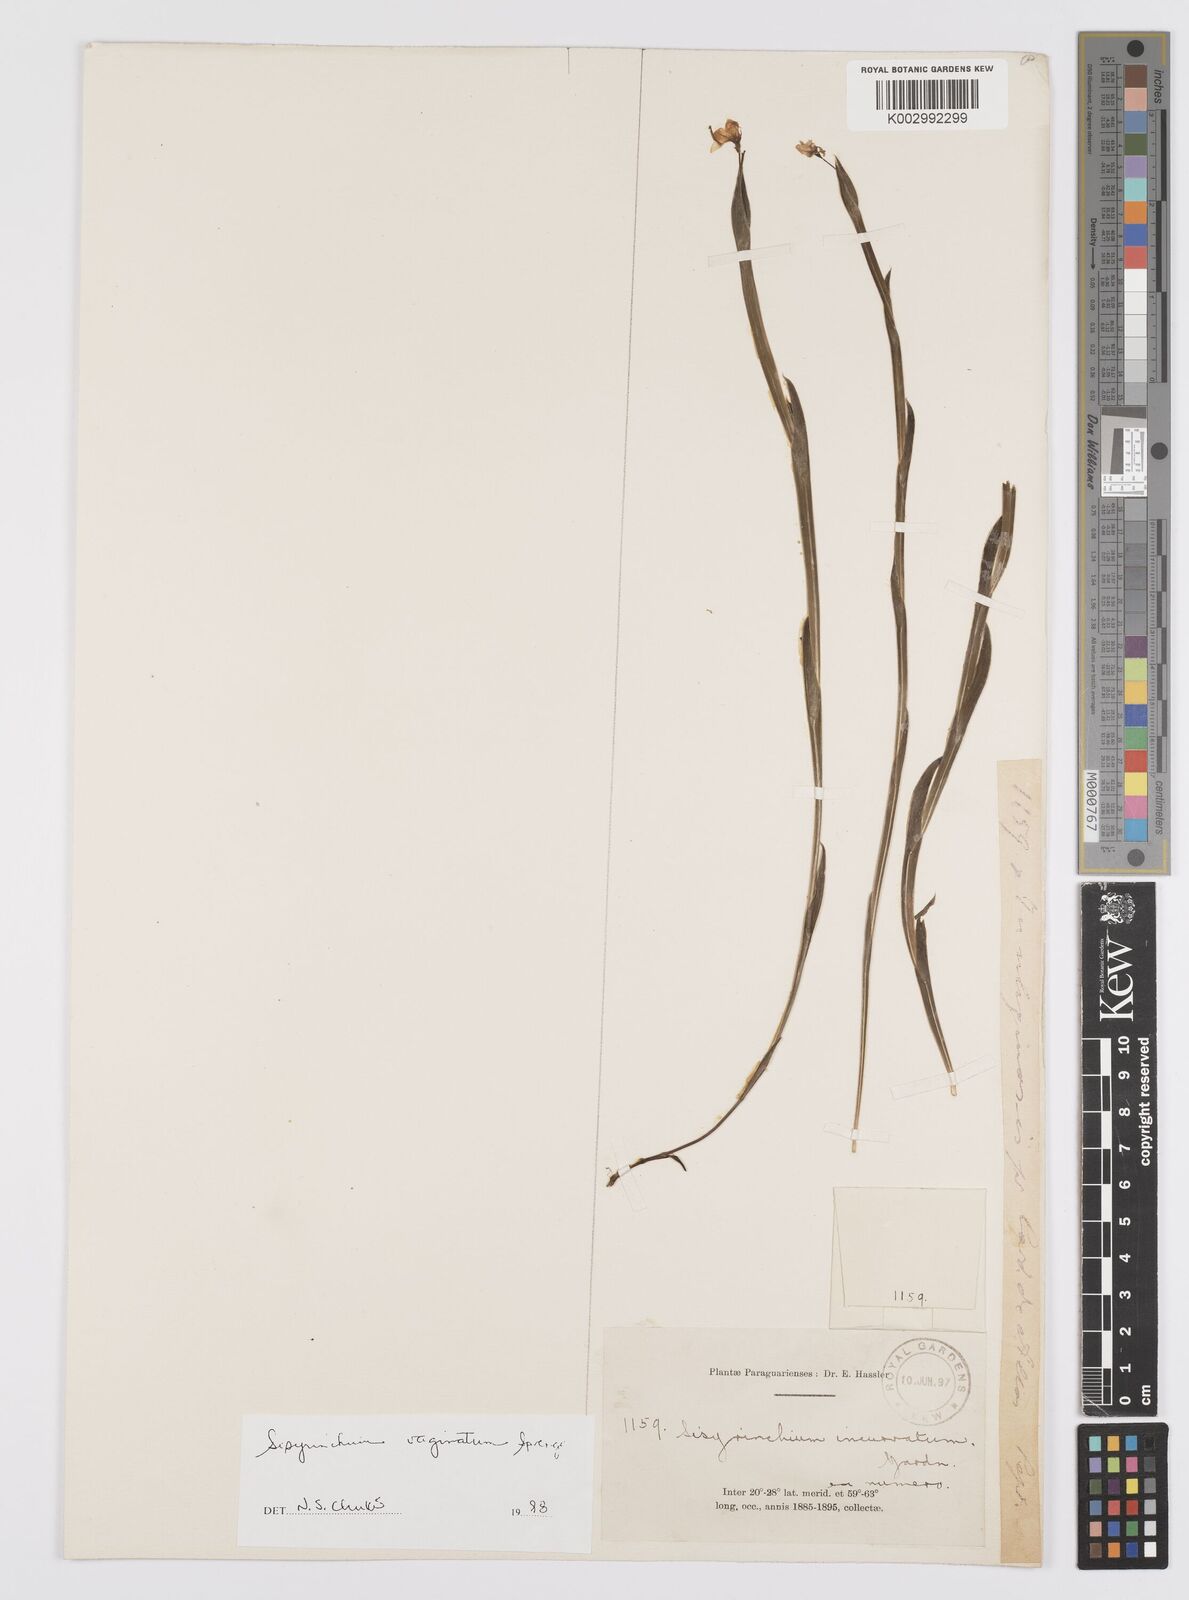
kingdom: Plantae
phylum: Tracheophyta
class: Liliopsida
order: Asparagales
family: Iridaceae
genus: Sisyrinchium
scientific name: Sisyrinchium vaginatum
